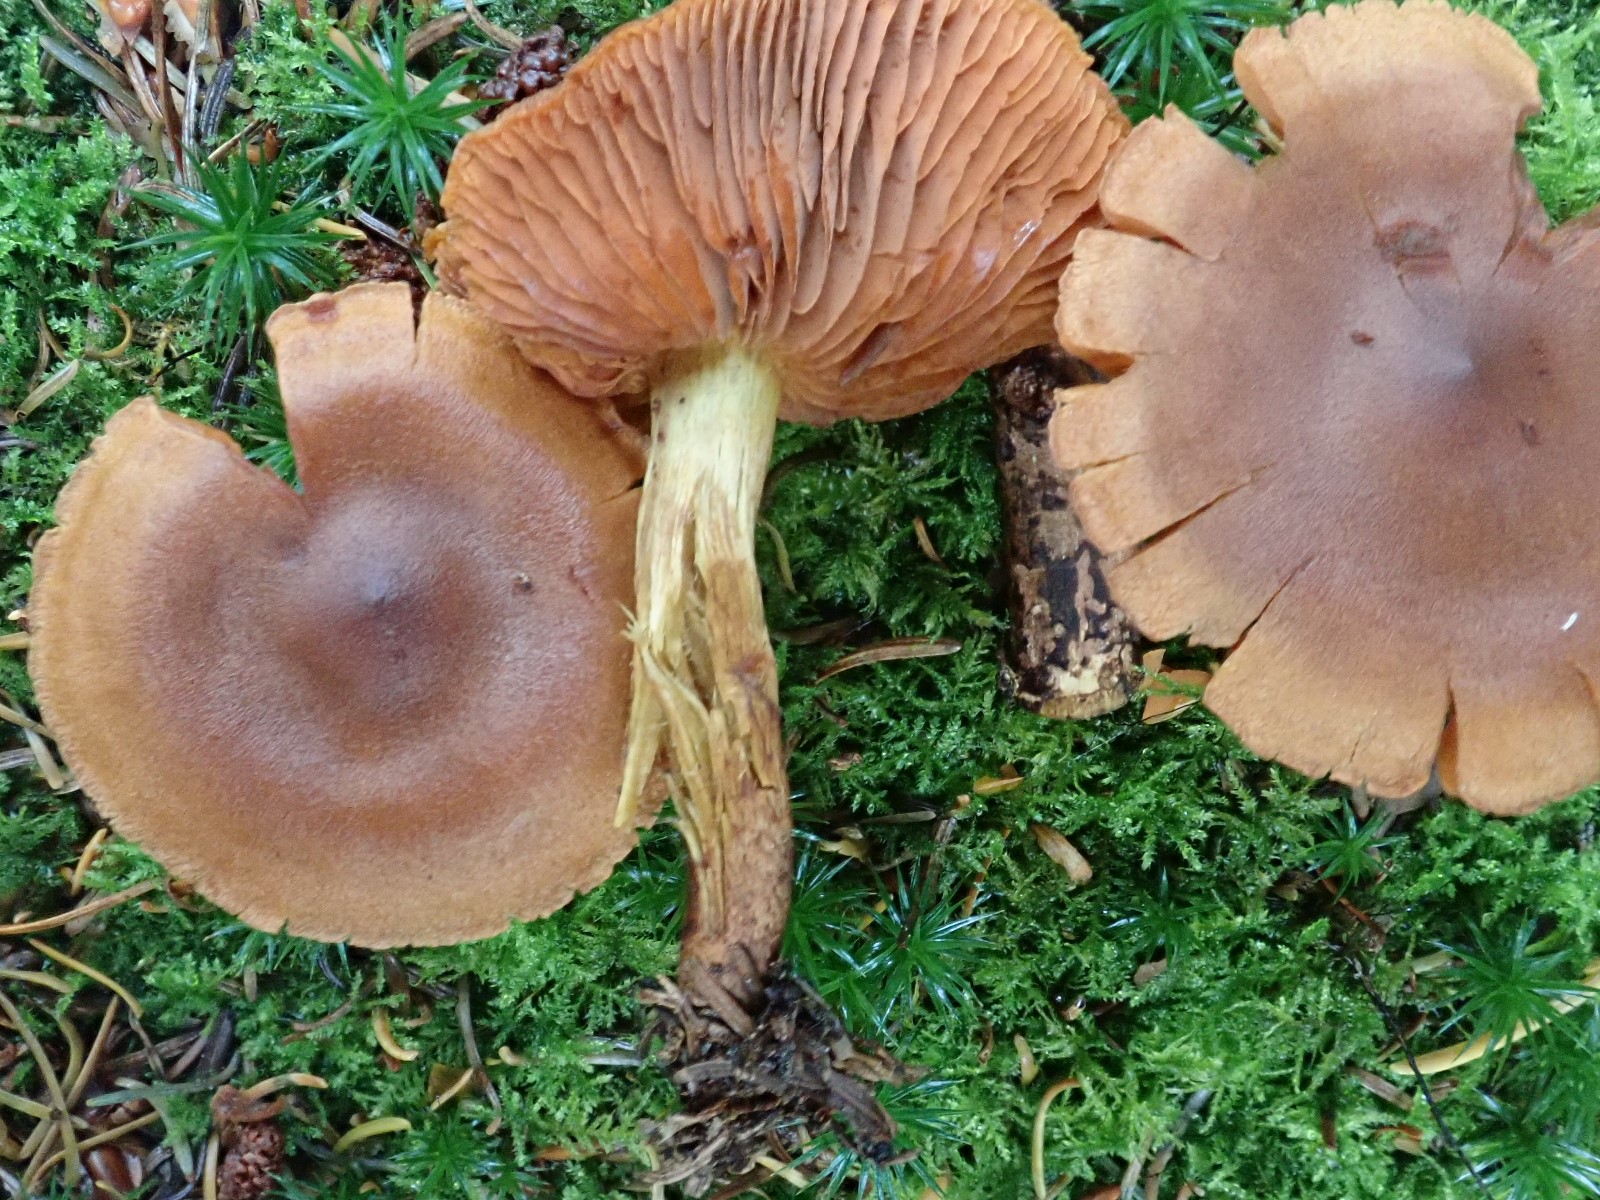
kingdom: Fungi
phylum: Basidiomycota
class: Agaricomycetes
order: Agaricales
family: Cortinariaceae
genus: Cortinarius
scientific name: Cortinarius malicorius
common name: grønkødet slørhat
